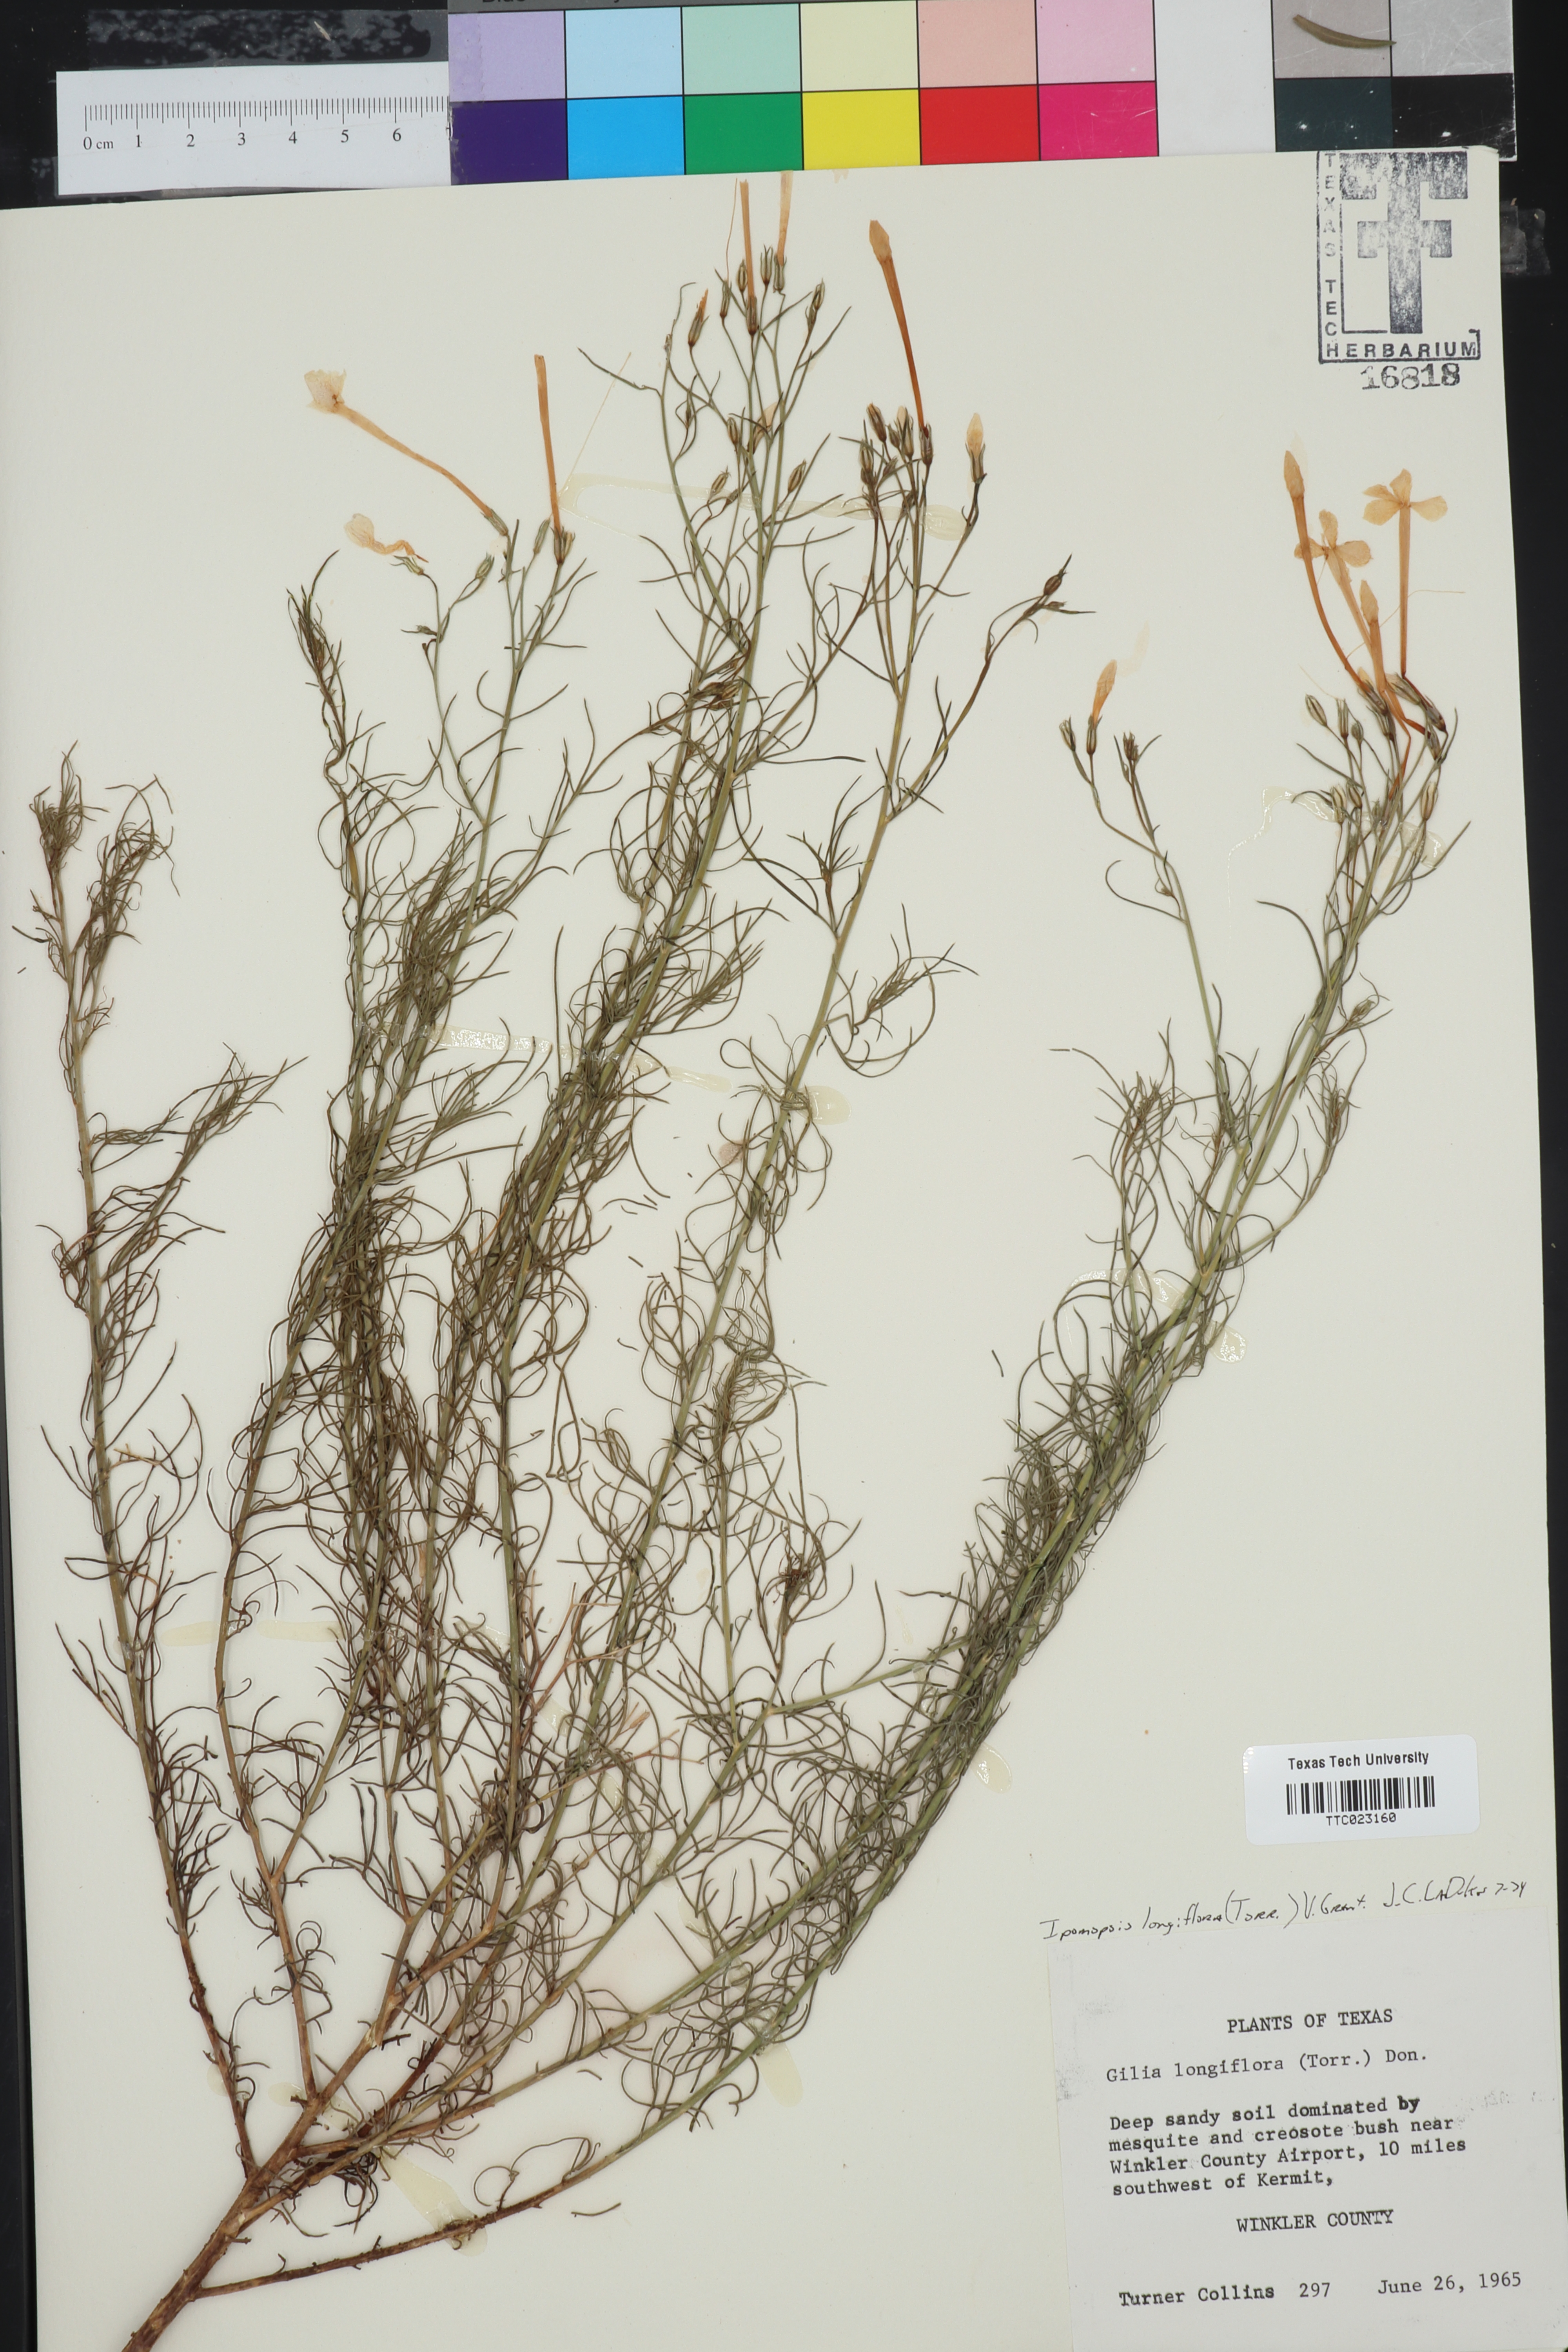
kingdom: Plantae
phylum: Tracheophyta
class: Magnoliopsida
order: Ericales
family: Polemoniaceae
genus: Ipomopsis
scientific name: Ipomopsis longiflora
